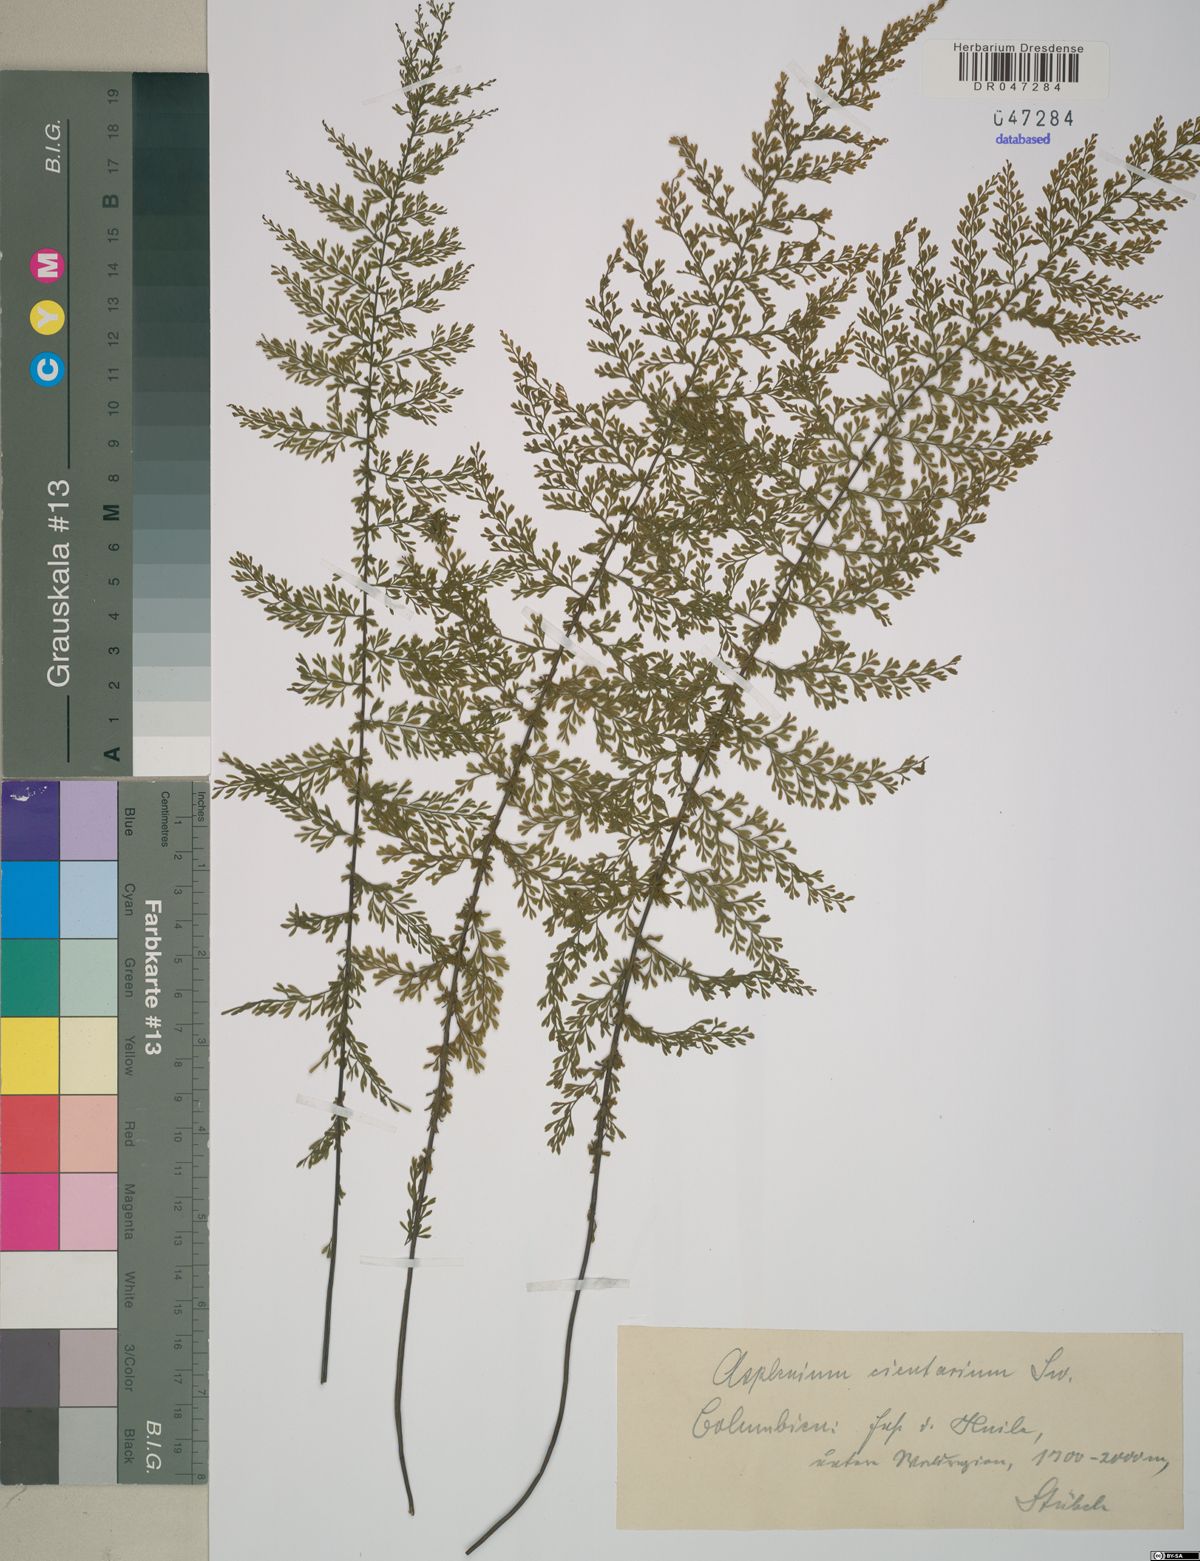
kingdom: Plantae
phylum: Tracheophyta
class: Polypodiopsida
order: Polypodiales
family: Aspleniaceae
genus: Asplenium
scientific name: Asplenium cristatum
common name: Parsley spleenwort
